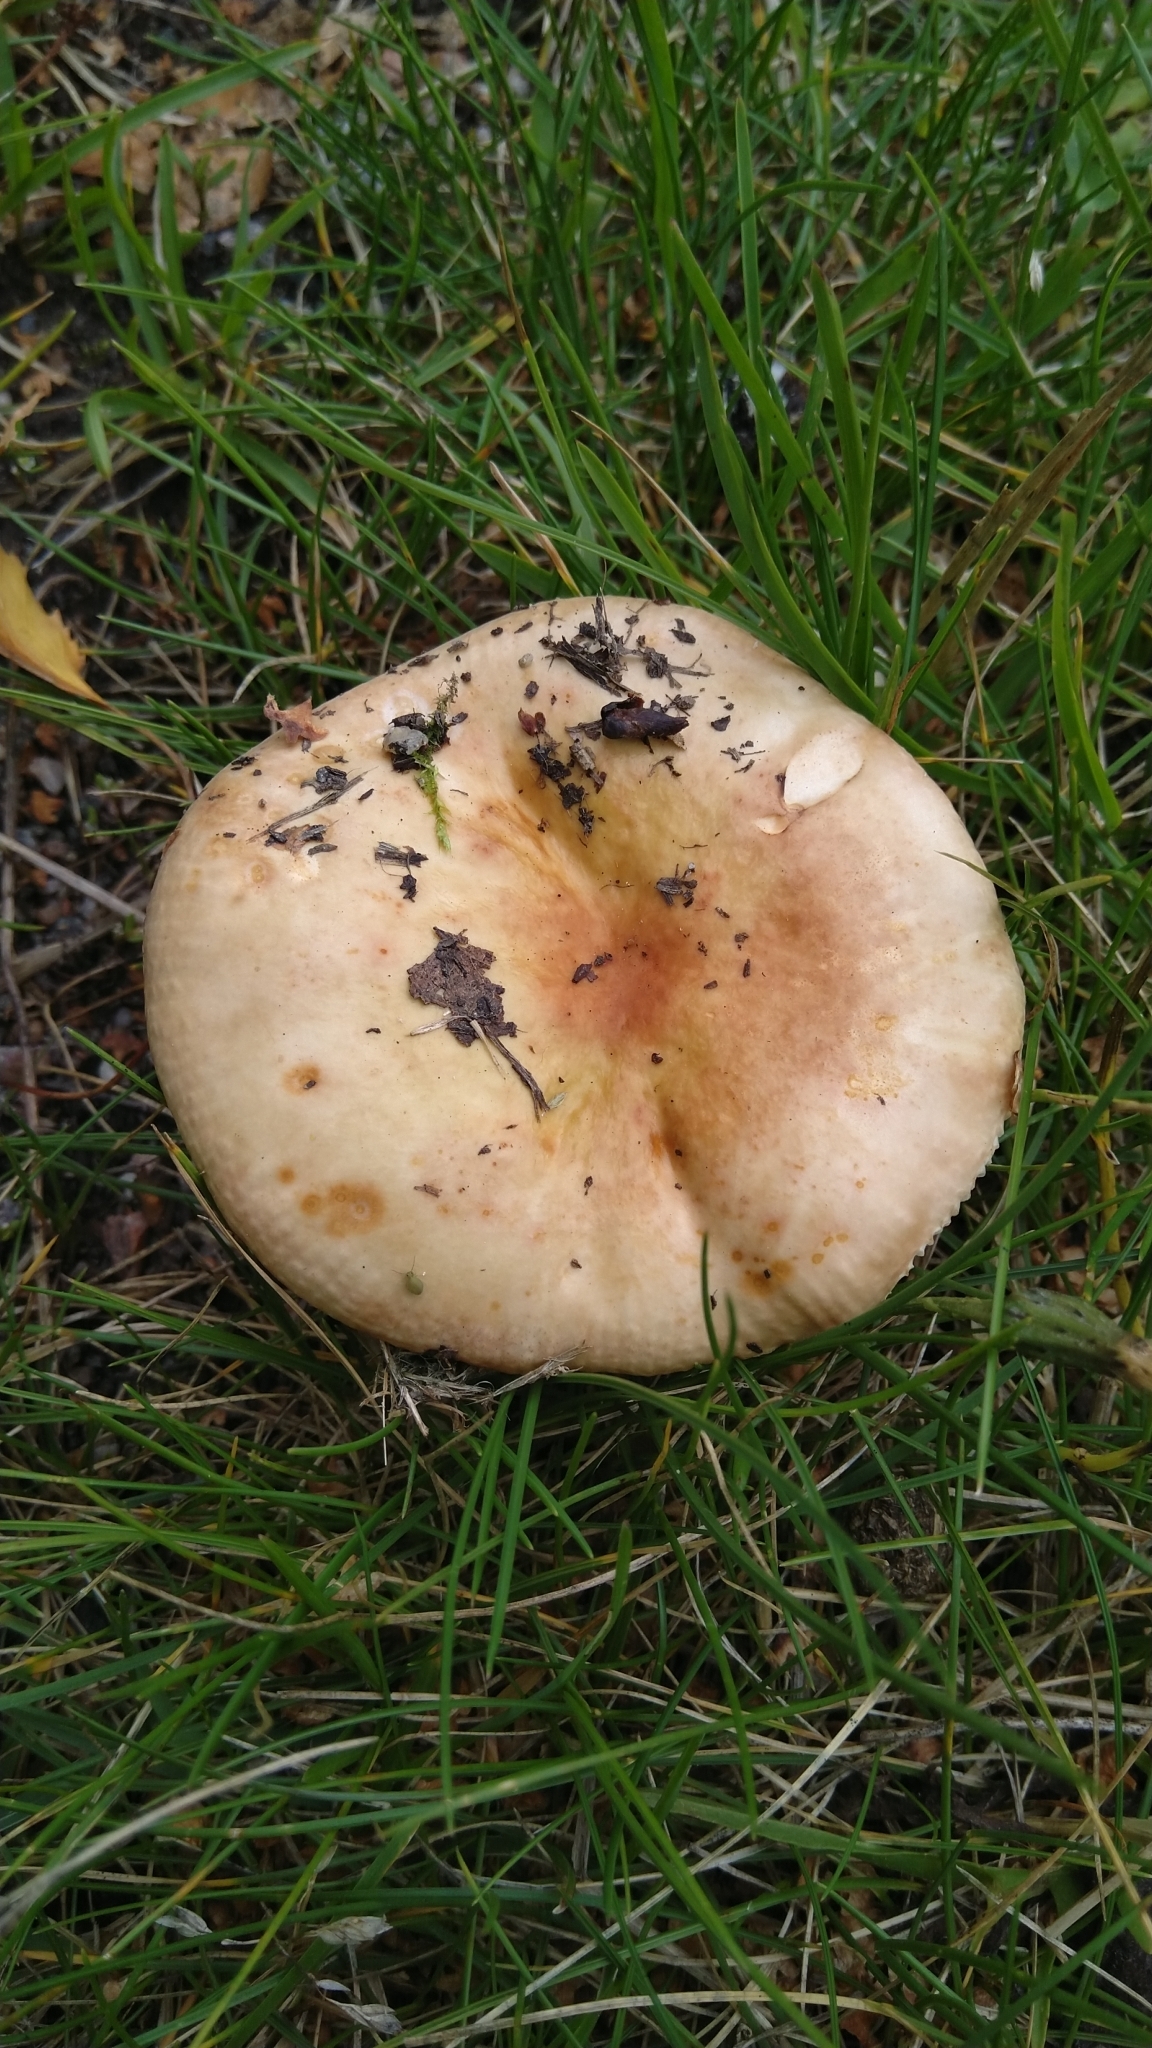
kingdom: Fungi
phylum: Basidiomycota
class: Agaricomycetes
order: Russulales
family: Russulaceae
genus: Russula
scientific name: Russula
